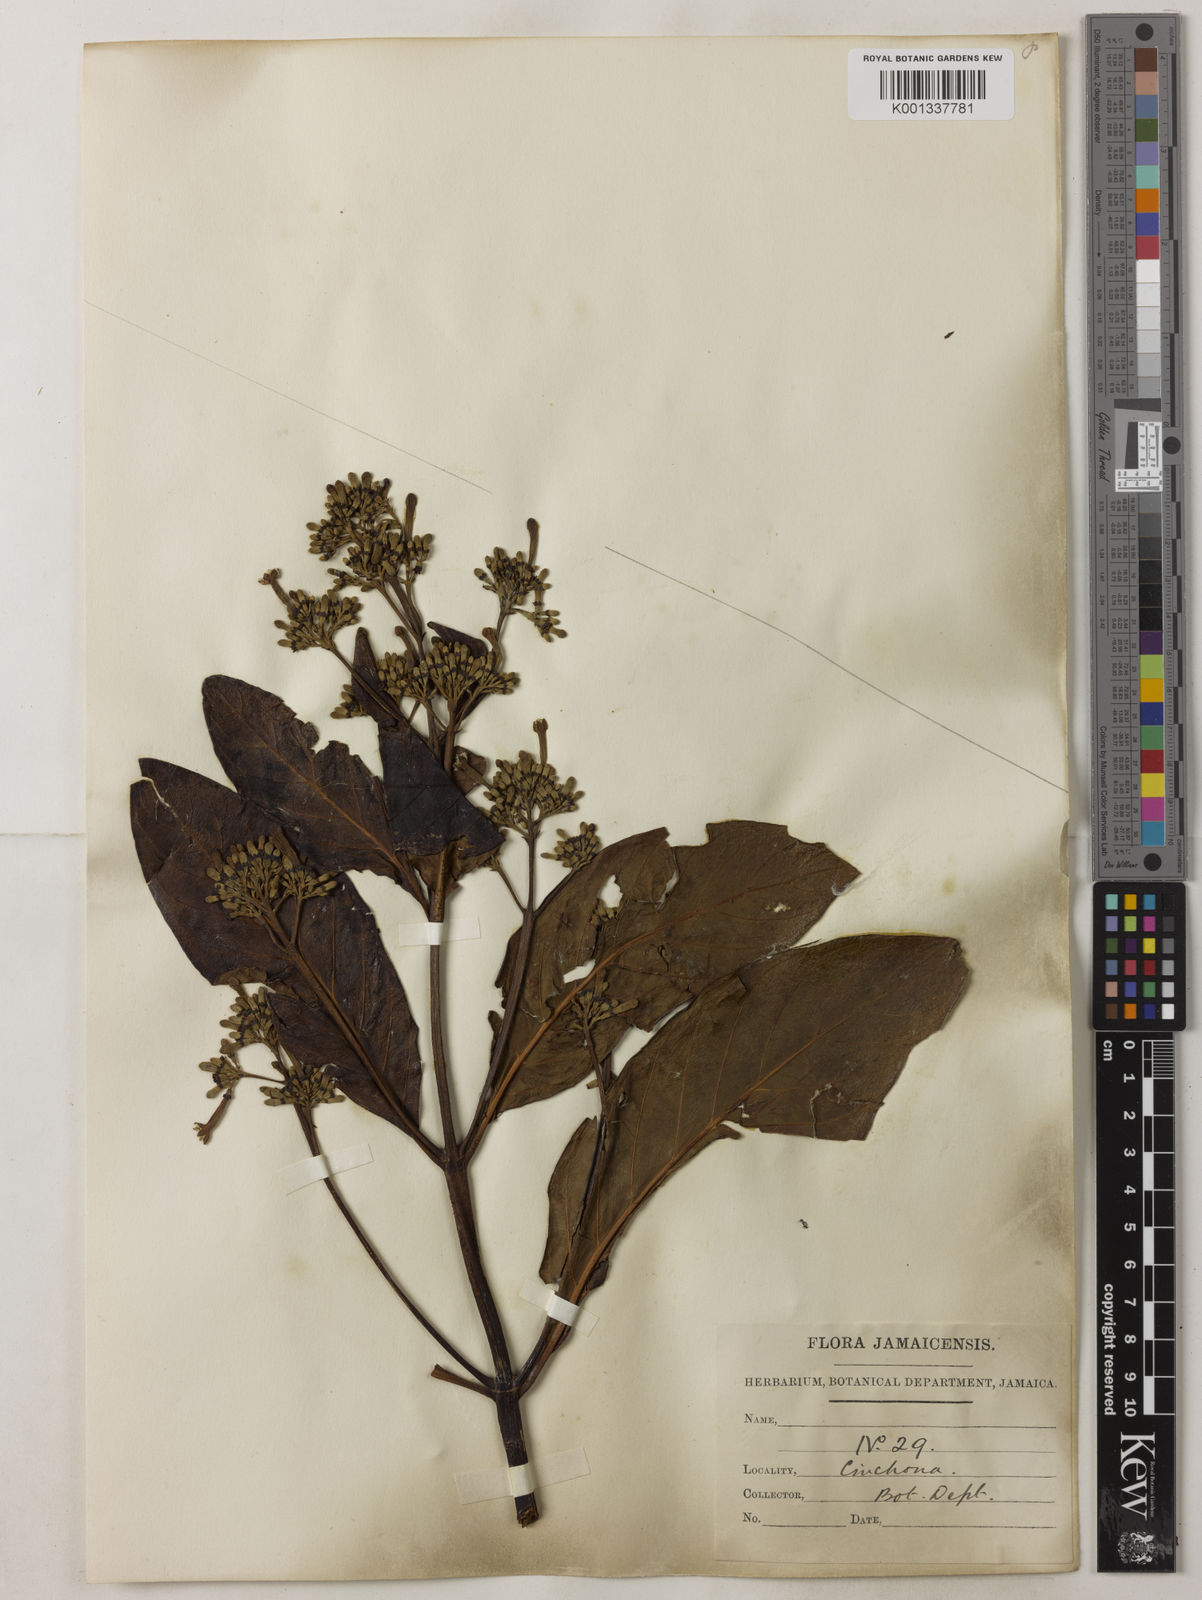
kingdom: Plantae
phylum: Tracheophyta
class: Magnoliopsida
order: Gentianales
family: Rubiaceae
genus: Cinchona
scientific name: Cinchona
